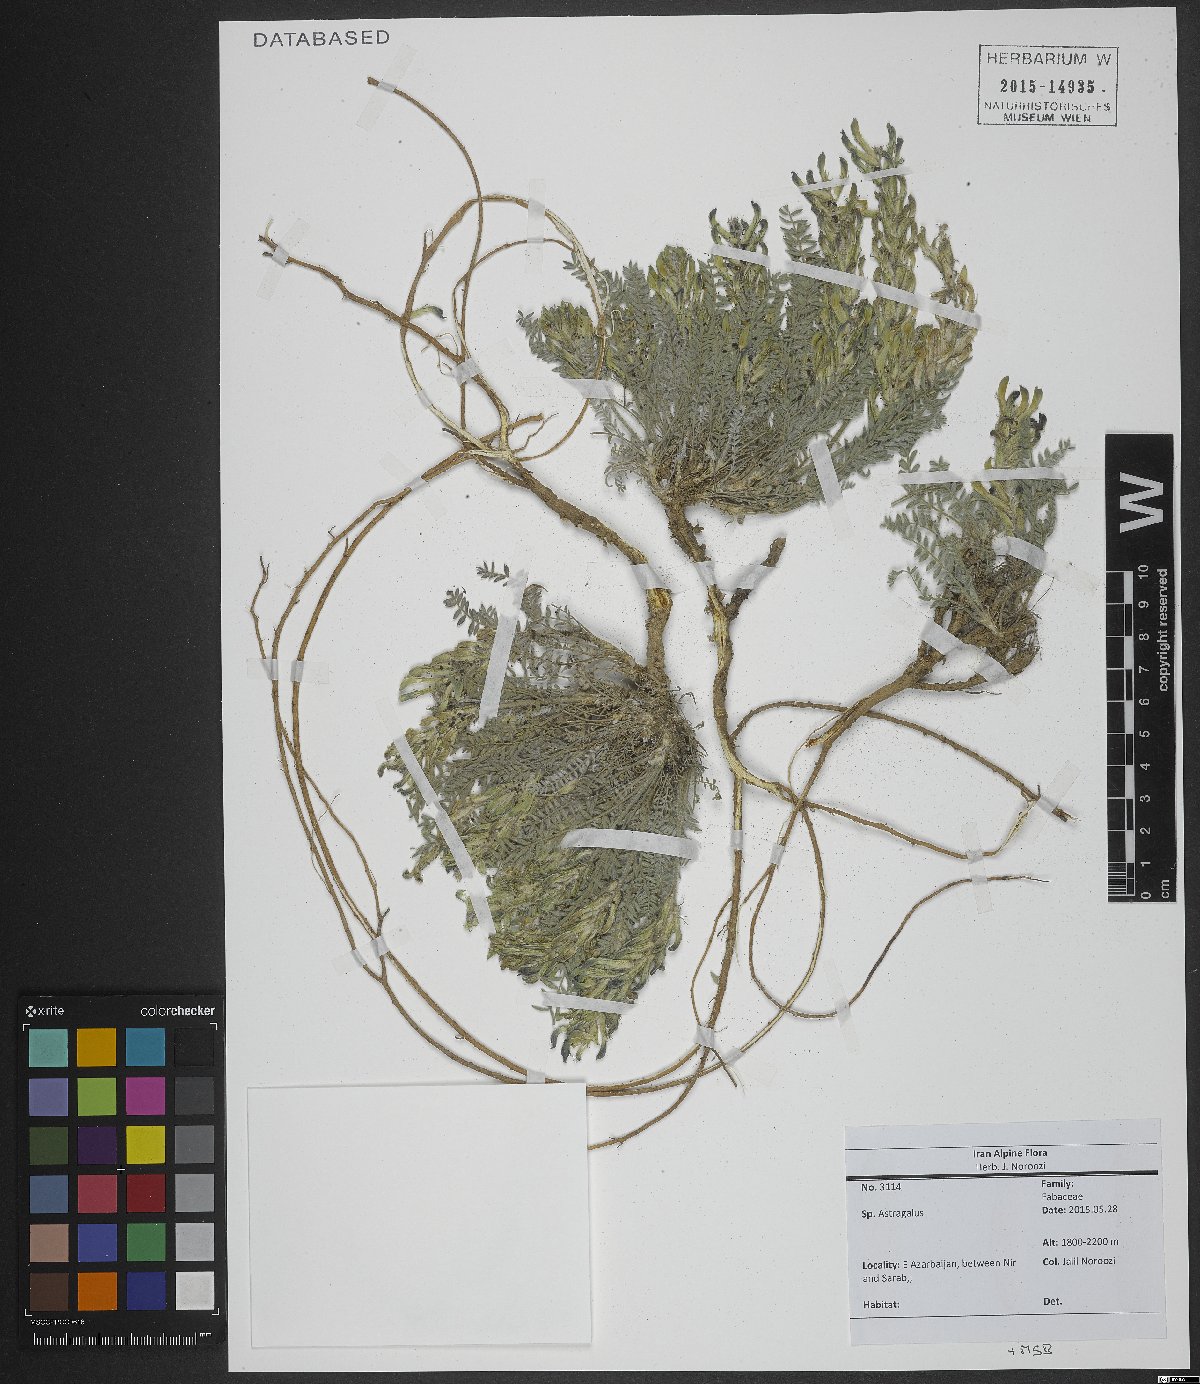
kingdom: Plantae
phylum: Tracheophyta
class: Magnoliopsida
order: Fabales
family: Fabaceae
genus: Astragalus
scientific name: Astragalus
